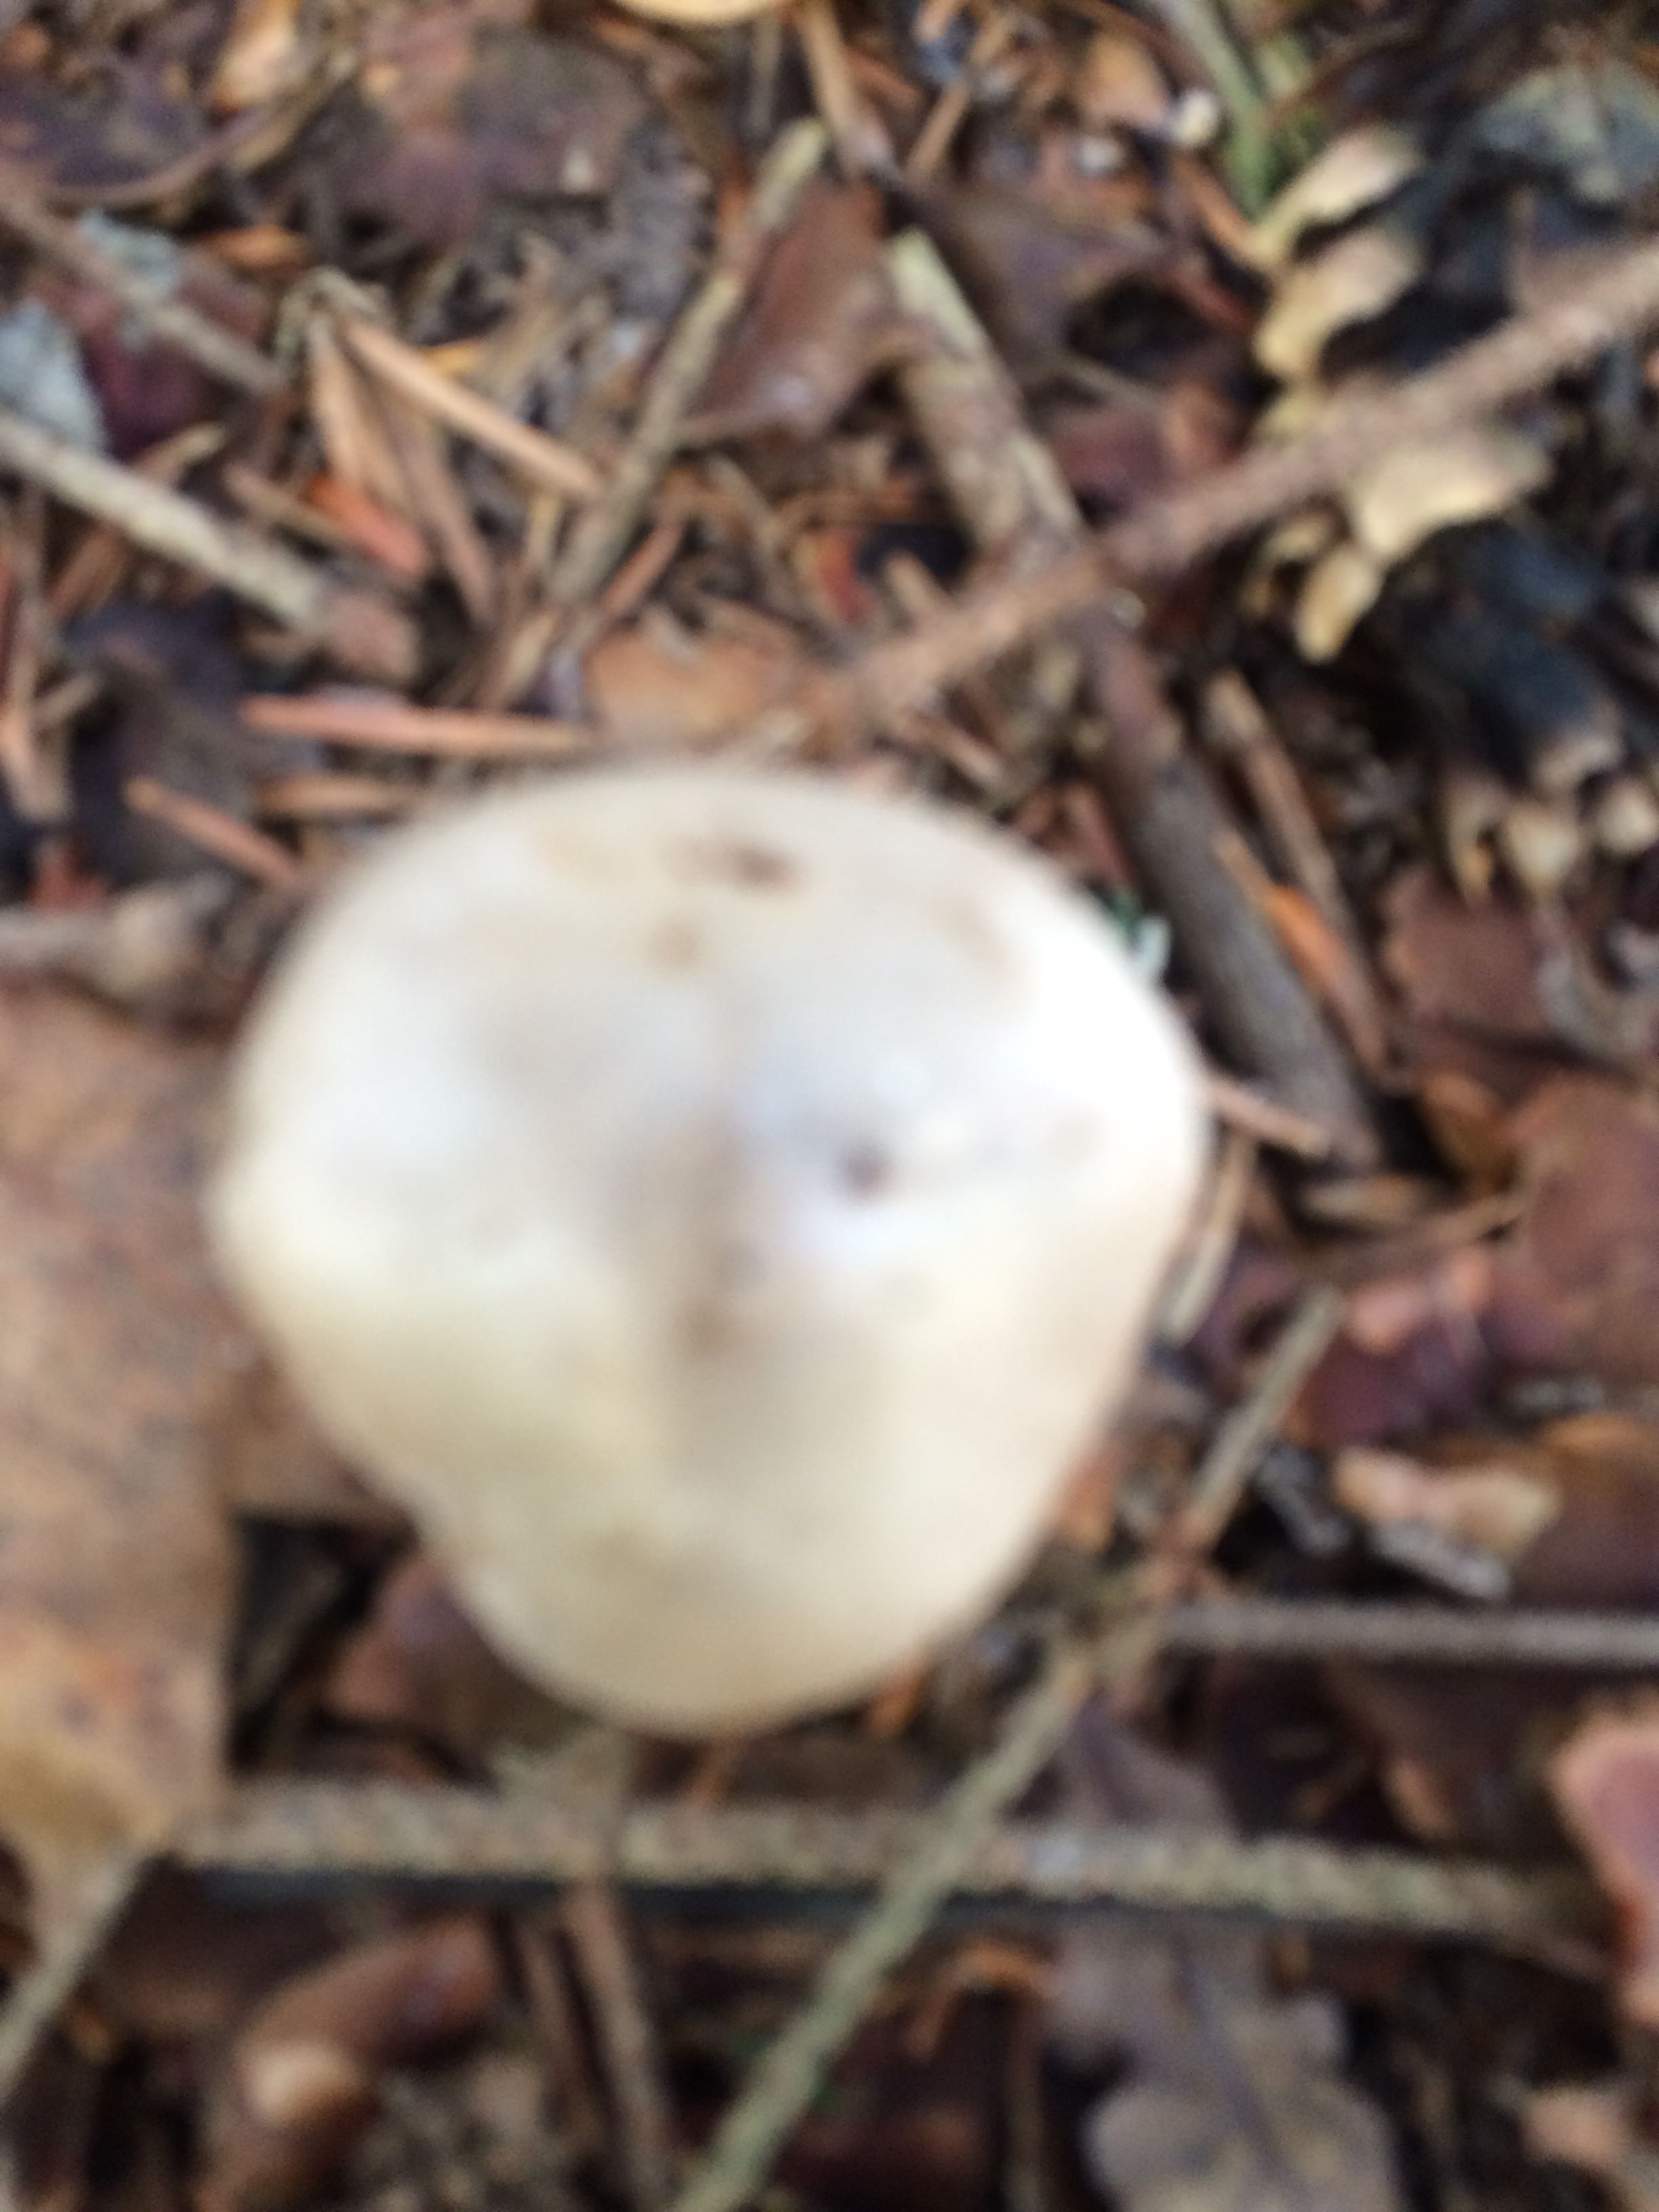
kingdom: Fungi
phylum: Basidiomycota
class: Agaricomycetes
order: Agaricales
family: Tricholomataceae
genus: Clitocybe
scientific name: Clitocybe nebularis
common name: tåge-tragthat
